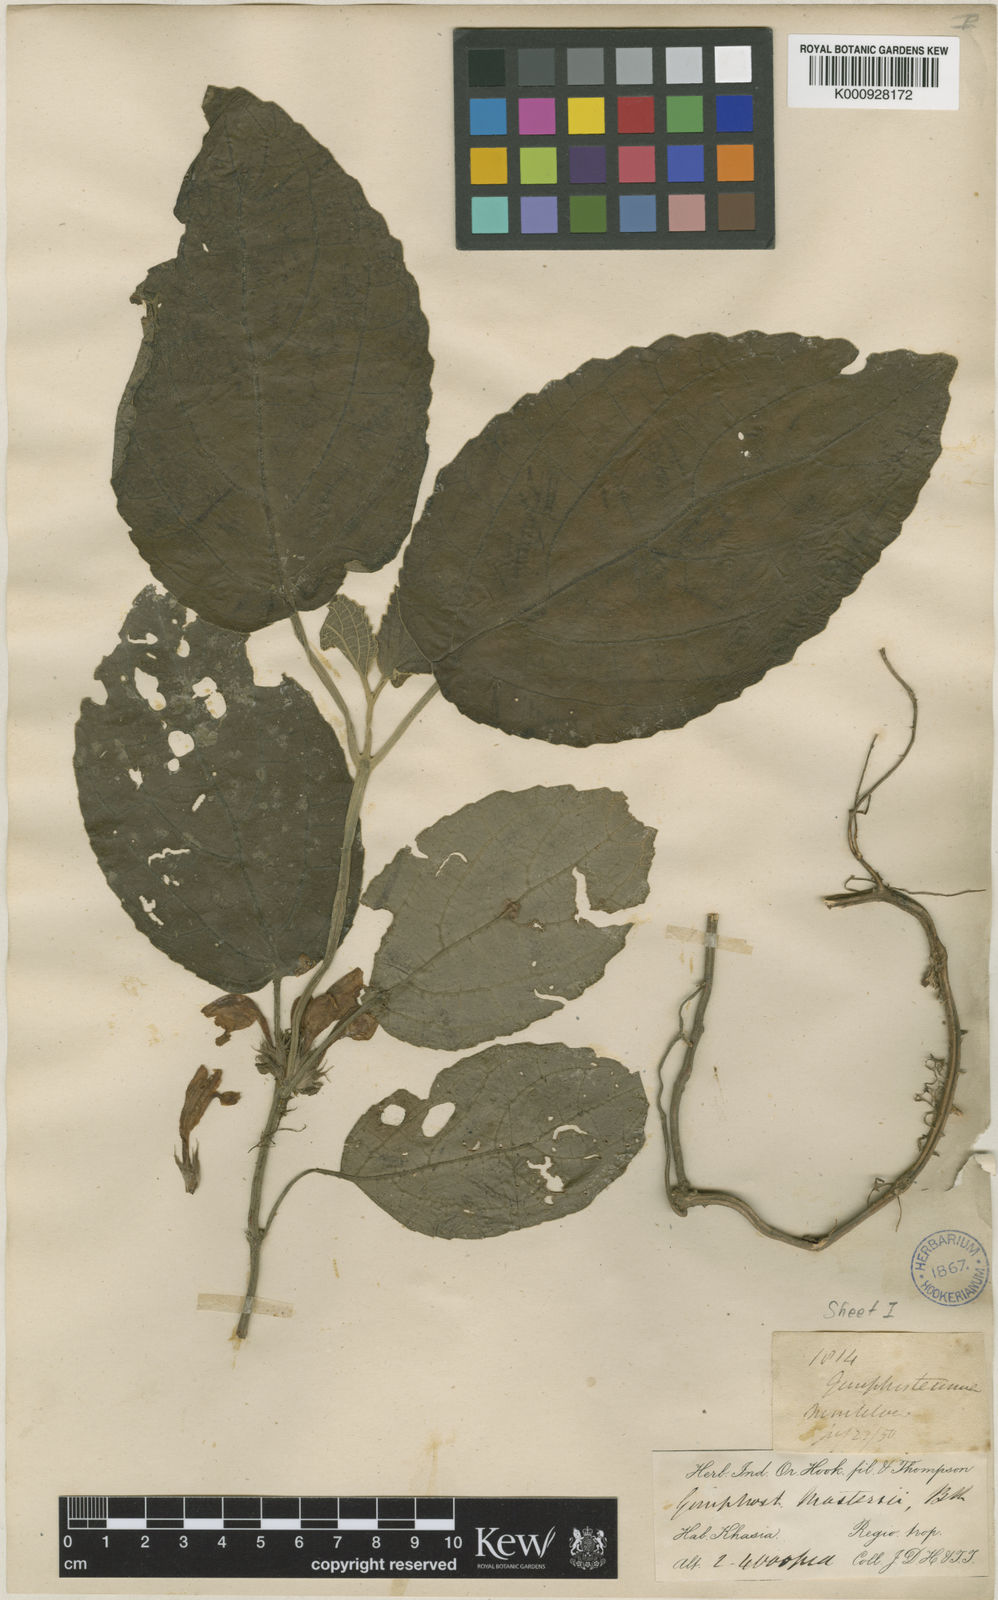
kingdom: Plantae
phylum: Tracheophyta
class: Magnoliopsida
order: Lamiales
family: Lamiaceae
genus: Gomphostemma
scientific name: Gomphostemma mastersii
